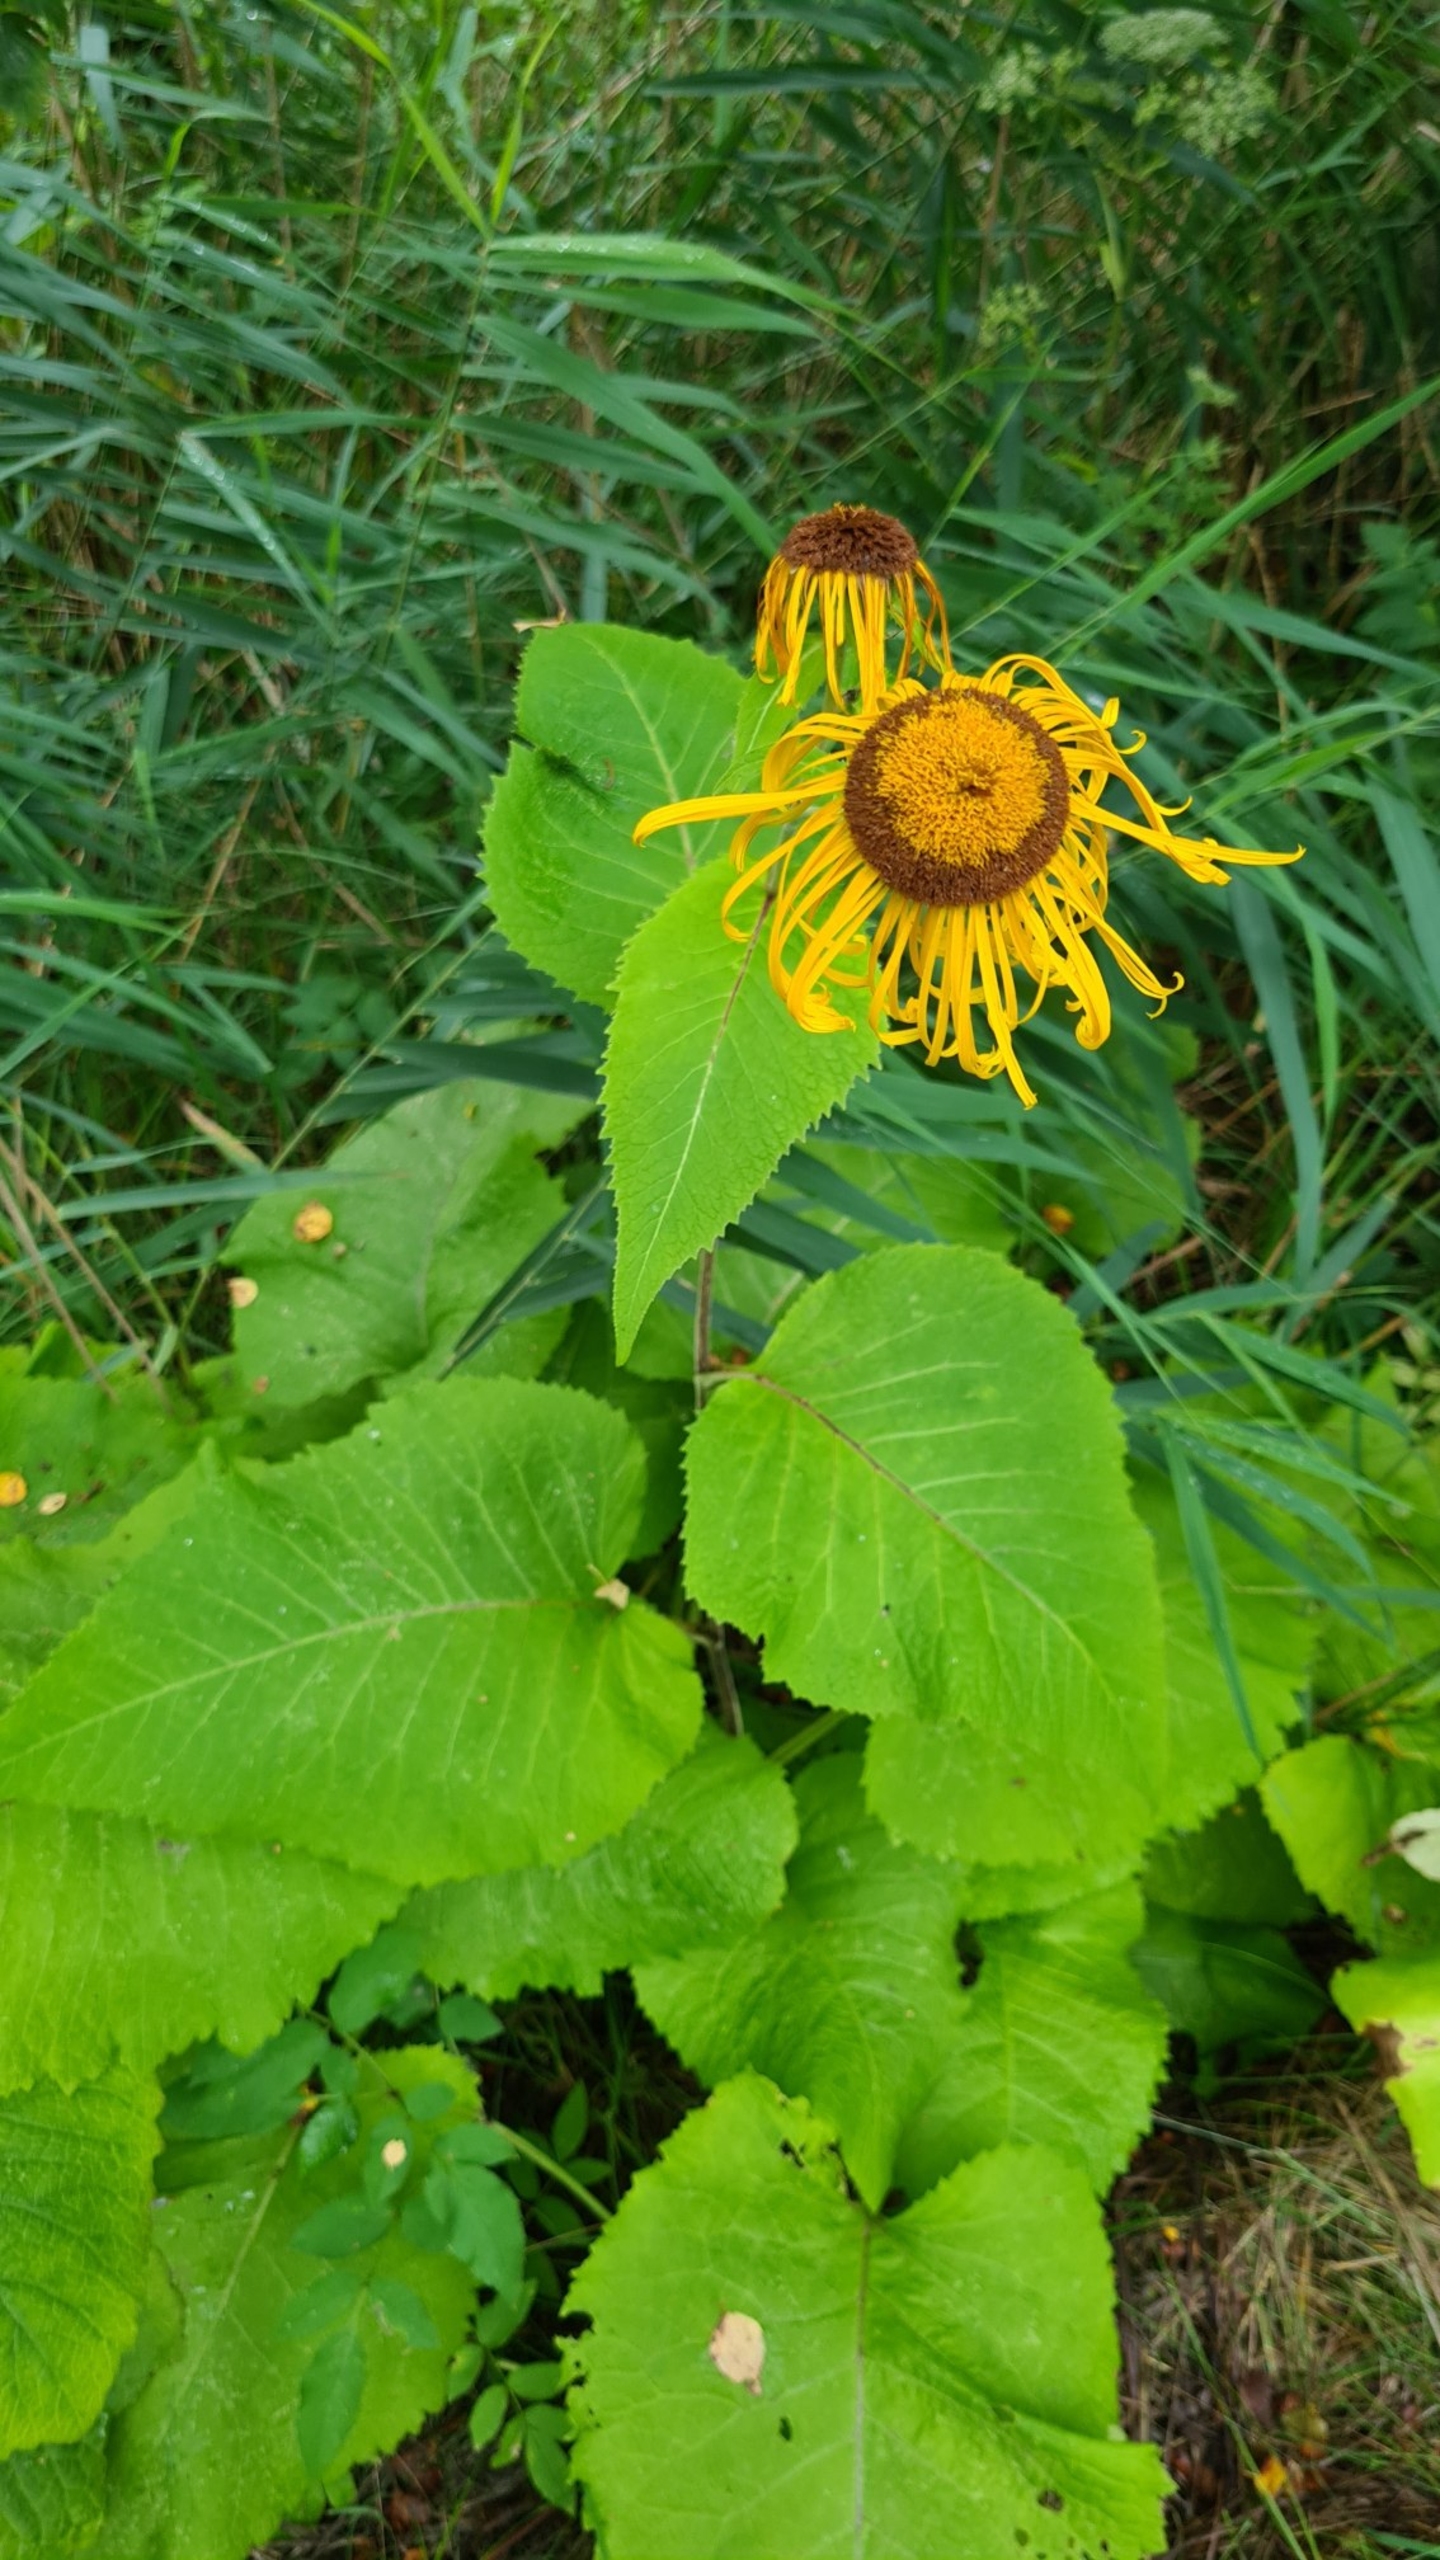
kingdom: Plantae
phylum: Tracheophyta
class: Magnoliopsida
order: Asterales
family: Asteraceae
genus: Telekia
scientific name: Telekia speciosa
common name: Tusindstråle
